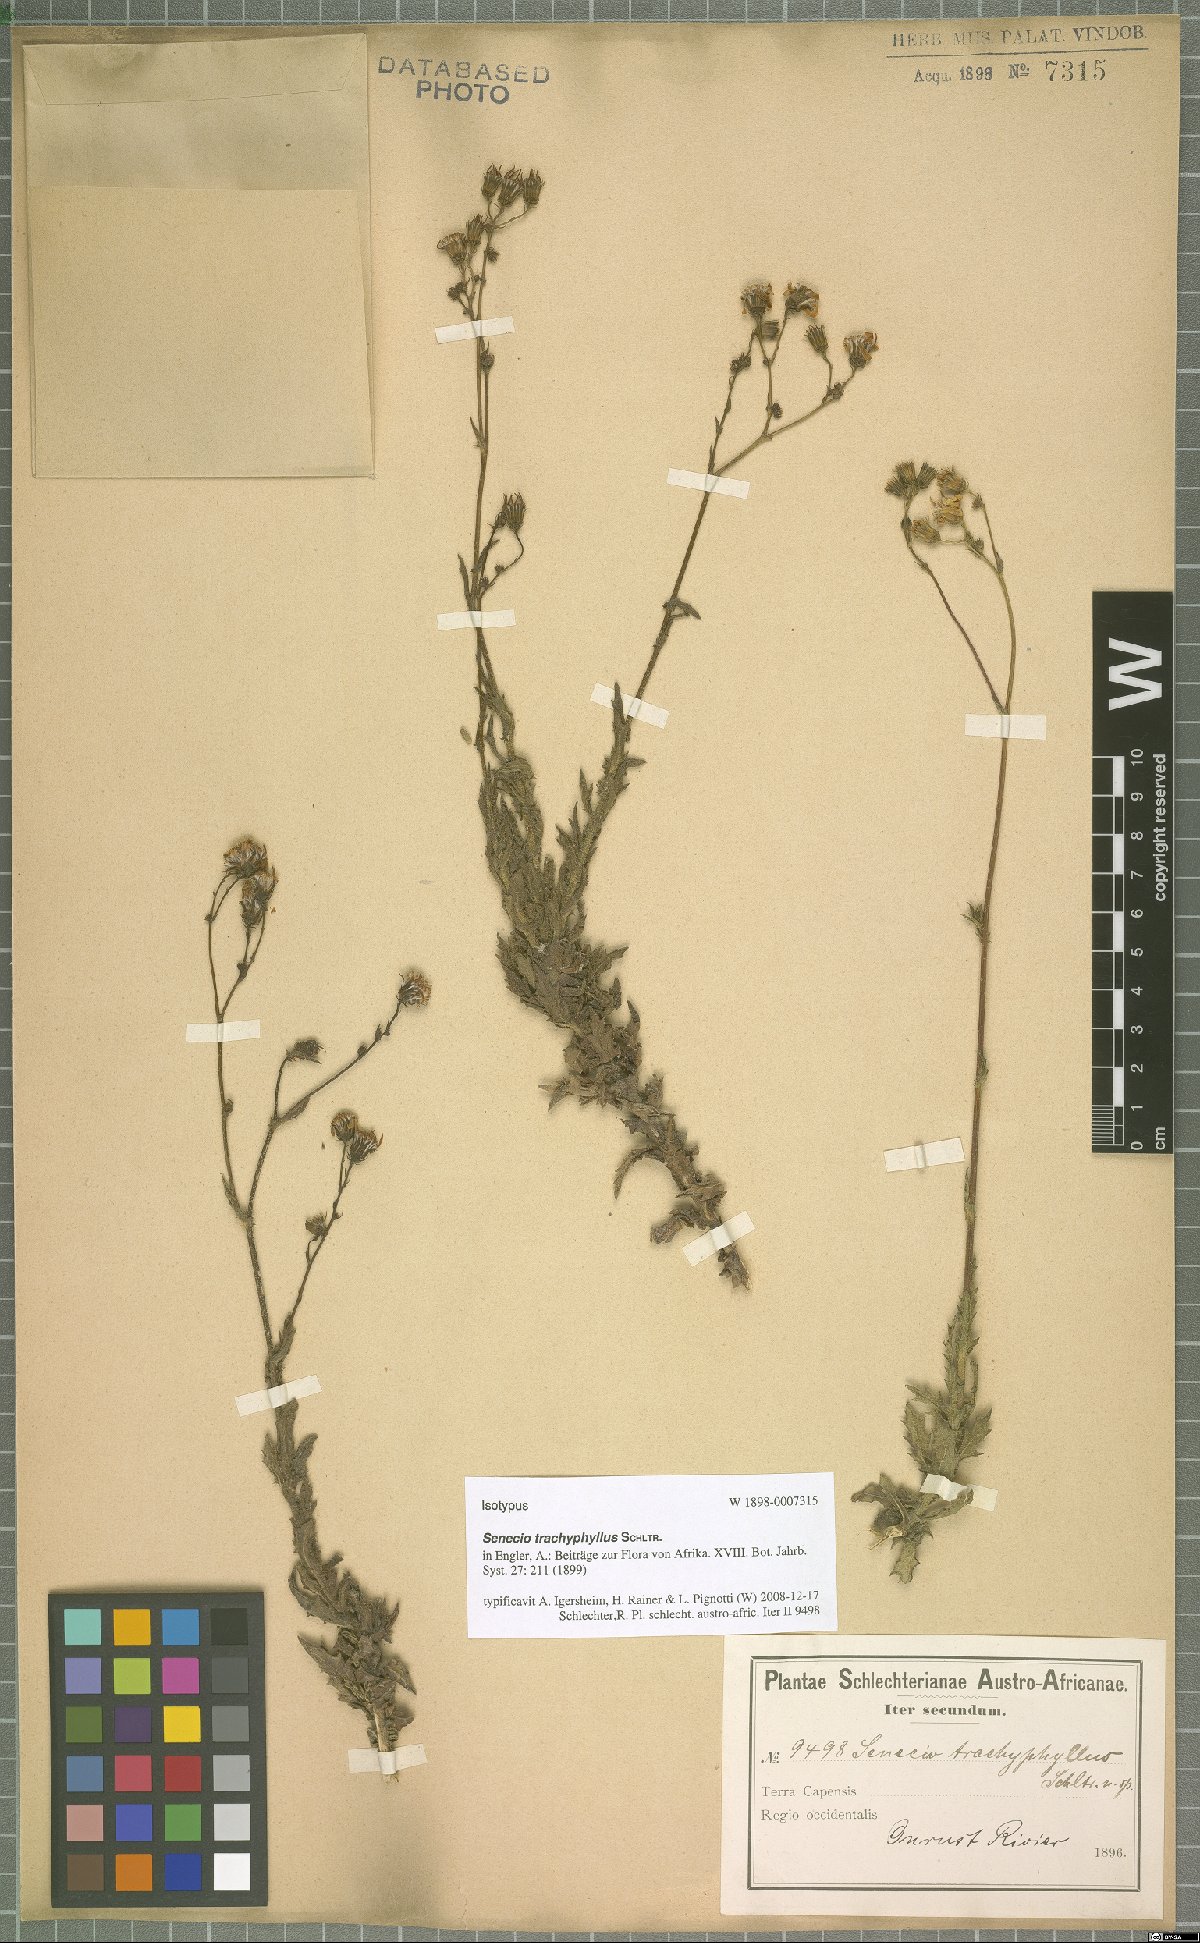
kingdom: Plantae
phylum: Tracheophyta
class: Magnoliopsida
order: Asterales
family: Asteraceae
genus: Senecio
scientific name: Senecio trachyphyllus
